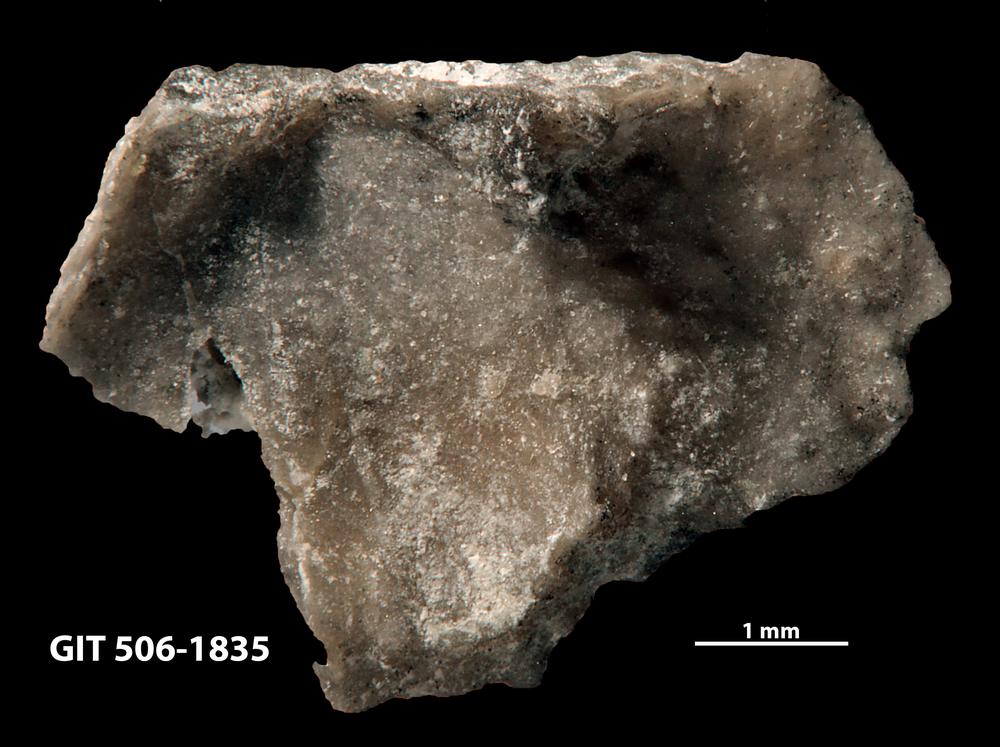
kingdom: Animalia
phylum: Brachiopoda
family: Strophomenidae
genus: Leptaena
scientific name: Leptaena purpurea
